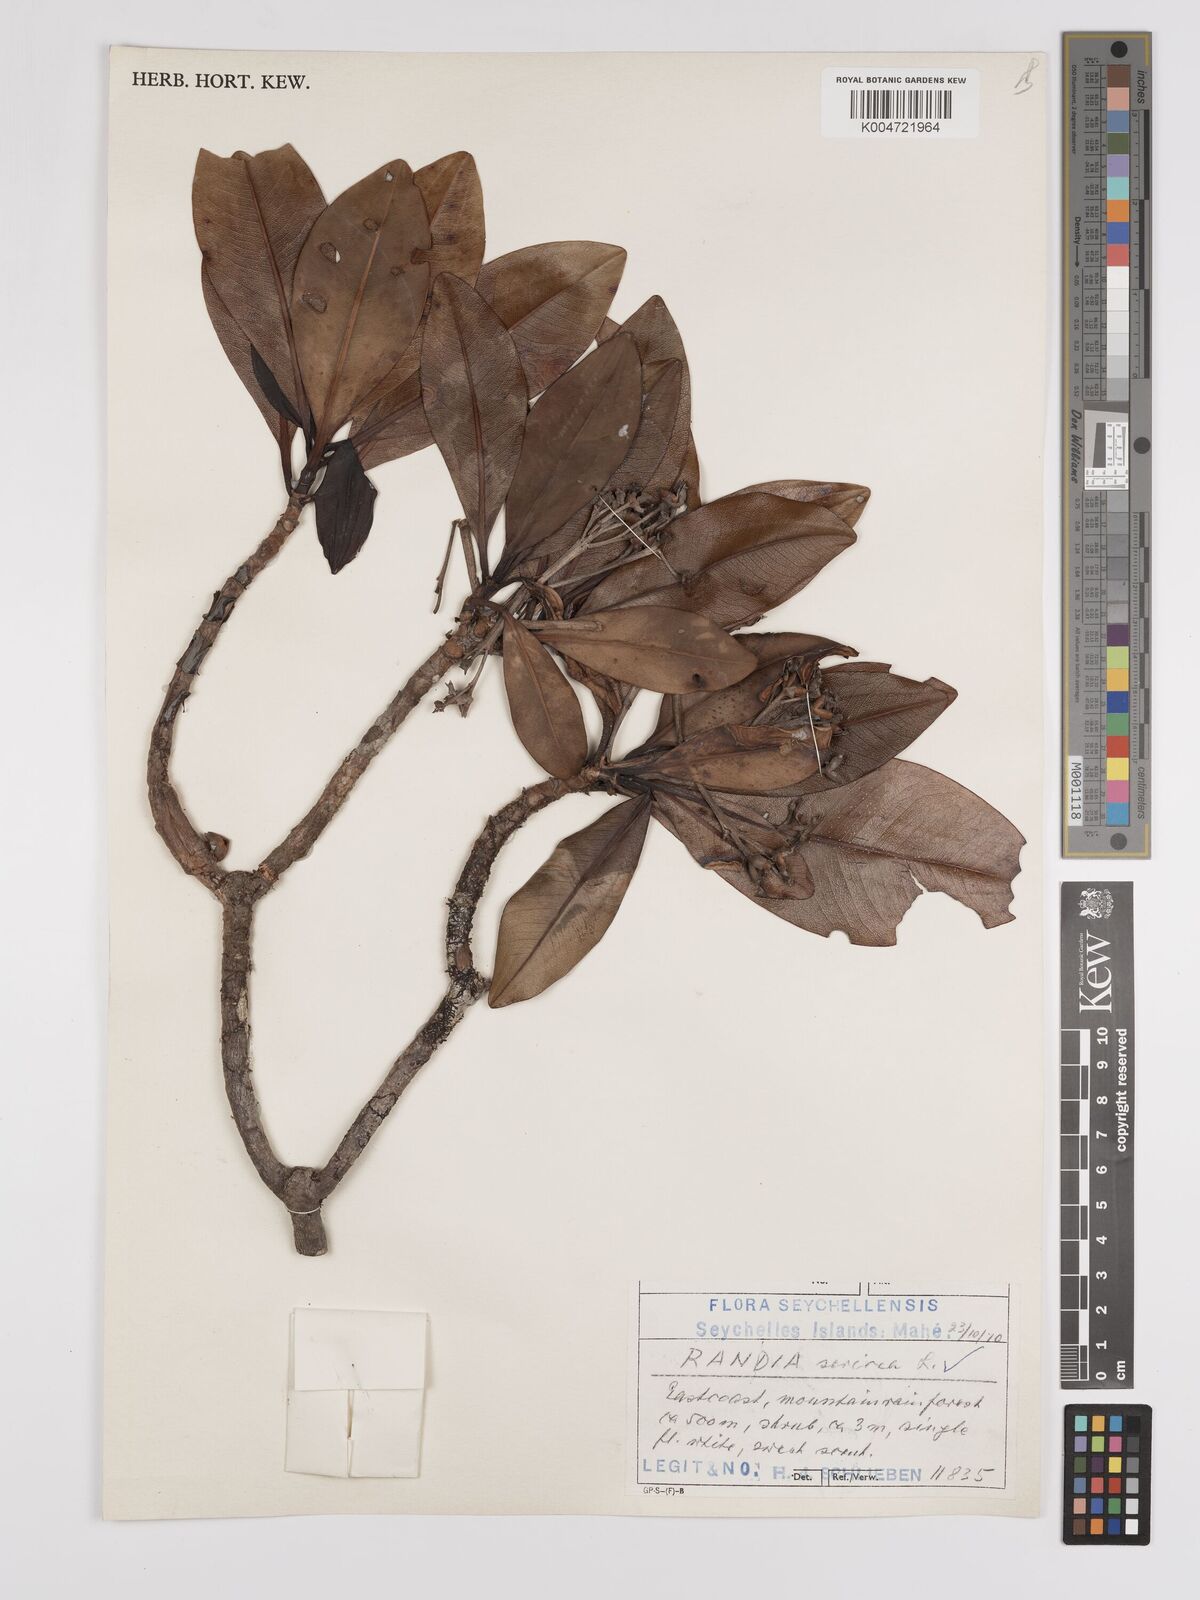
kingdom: Plantae
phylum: Tracheophyta
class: Magnoliopsida
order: Gentianales
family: Rubiaceae
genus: Glionnetia
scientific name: Glionnetia sericea
